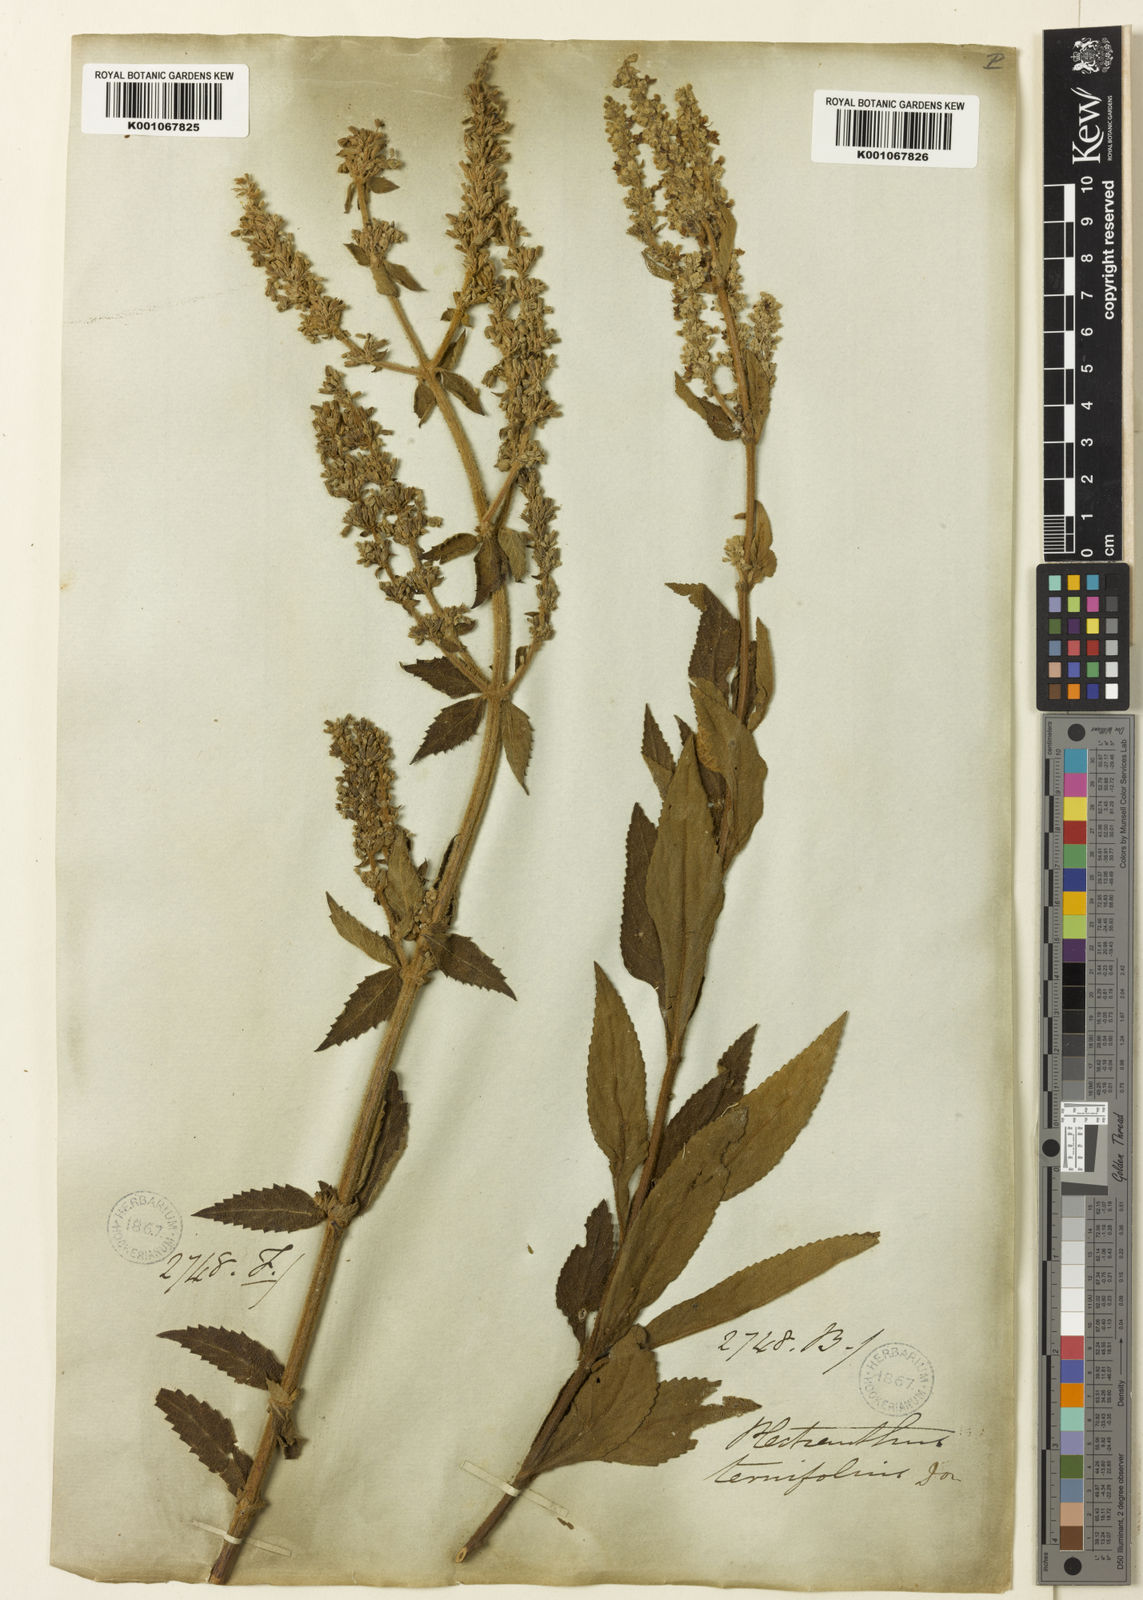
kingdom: Plantae
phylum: Tracheophyta
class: Magnoliopsida
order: Lamiales
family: Lamiaceae
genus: Isodon
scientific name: Isodon
